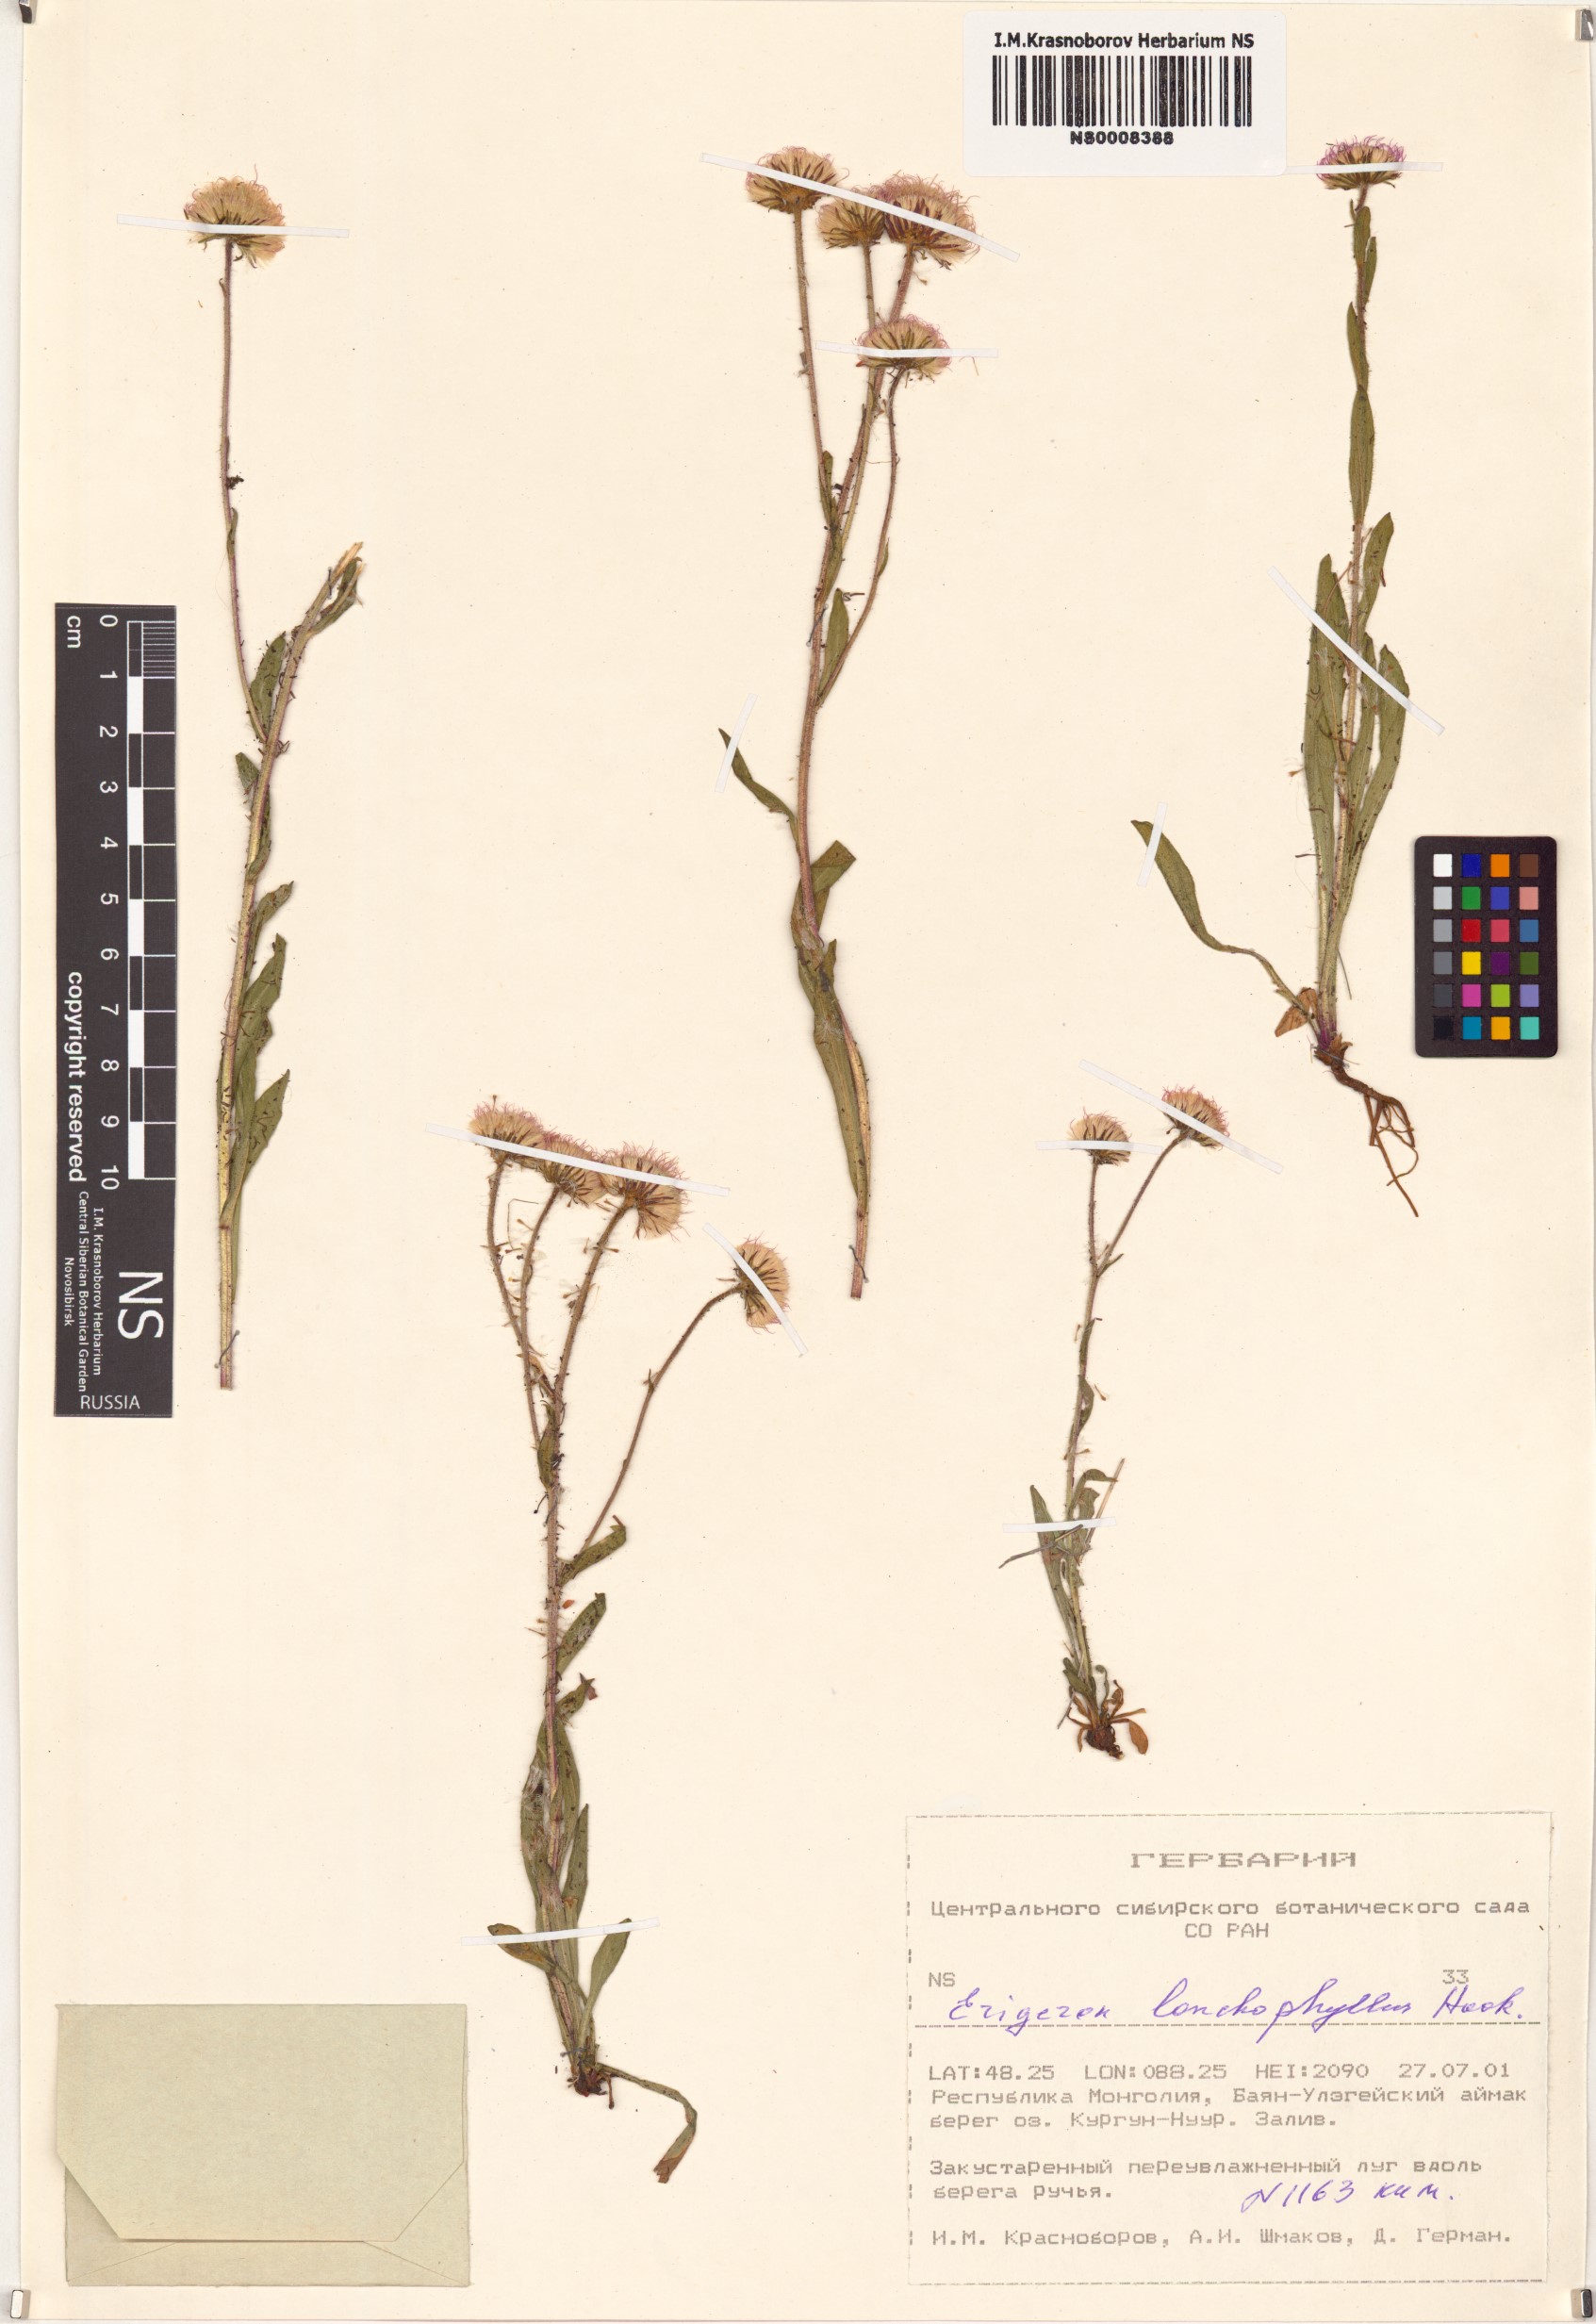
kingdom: Plantae
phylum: Tracheophyta
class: Magnoliopsida
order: Asterales
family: Asteraceae
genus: Erigeron
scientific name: Erigeron lonchophyllus
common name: Short-ray fleabane
